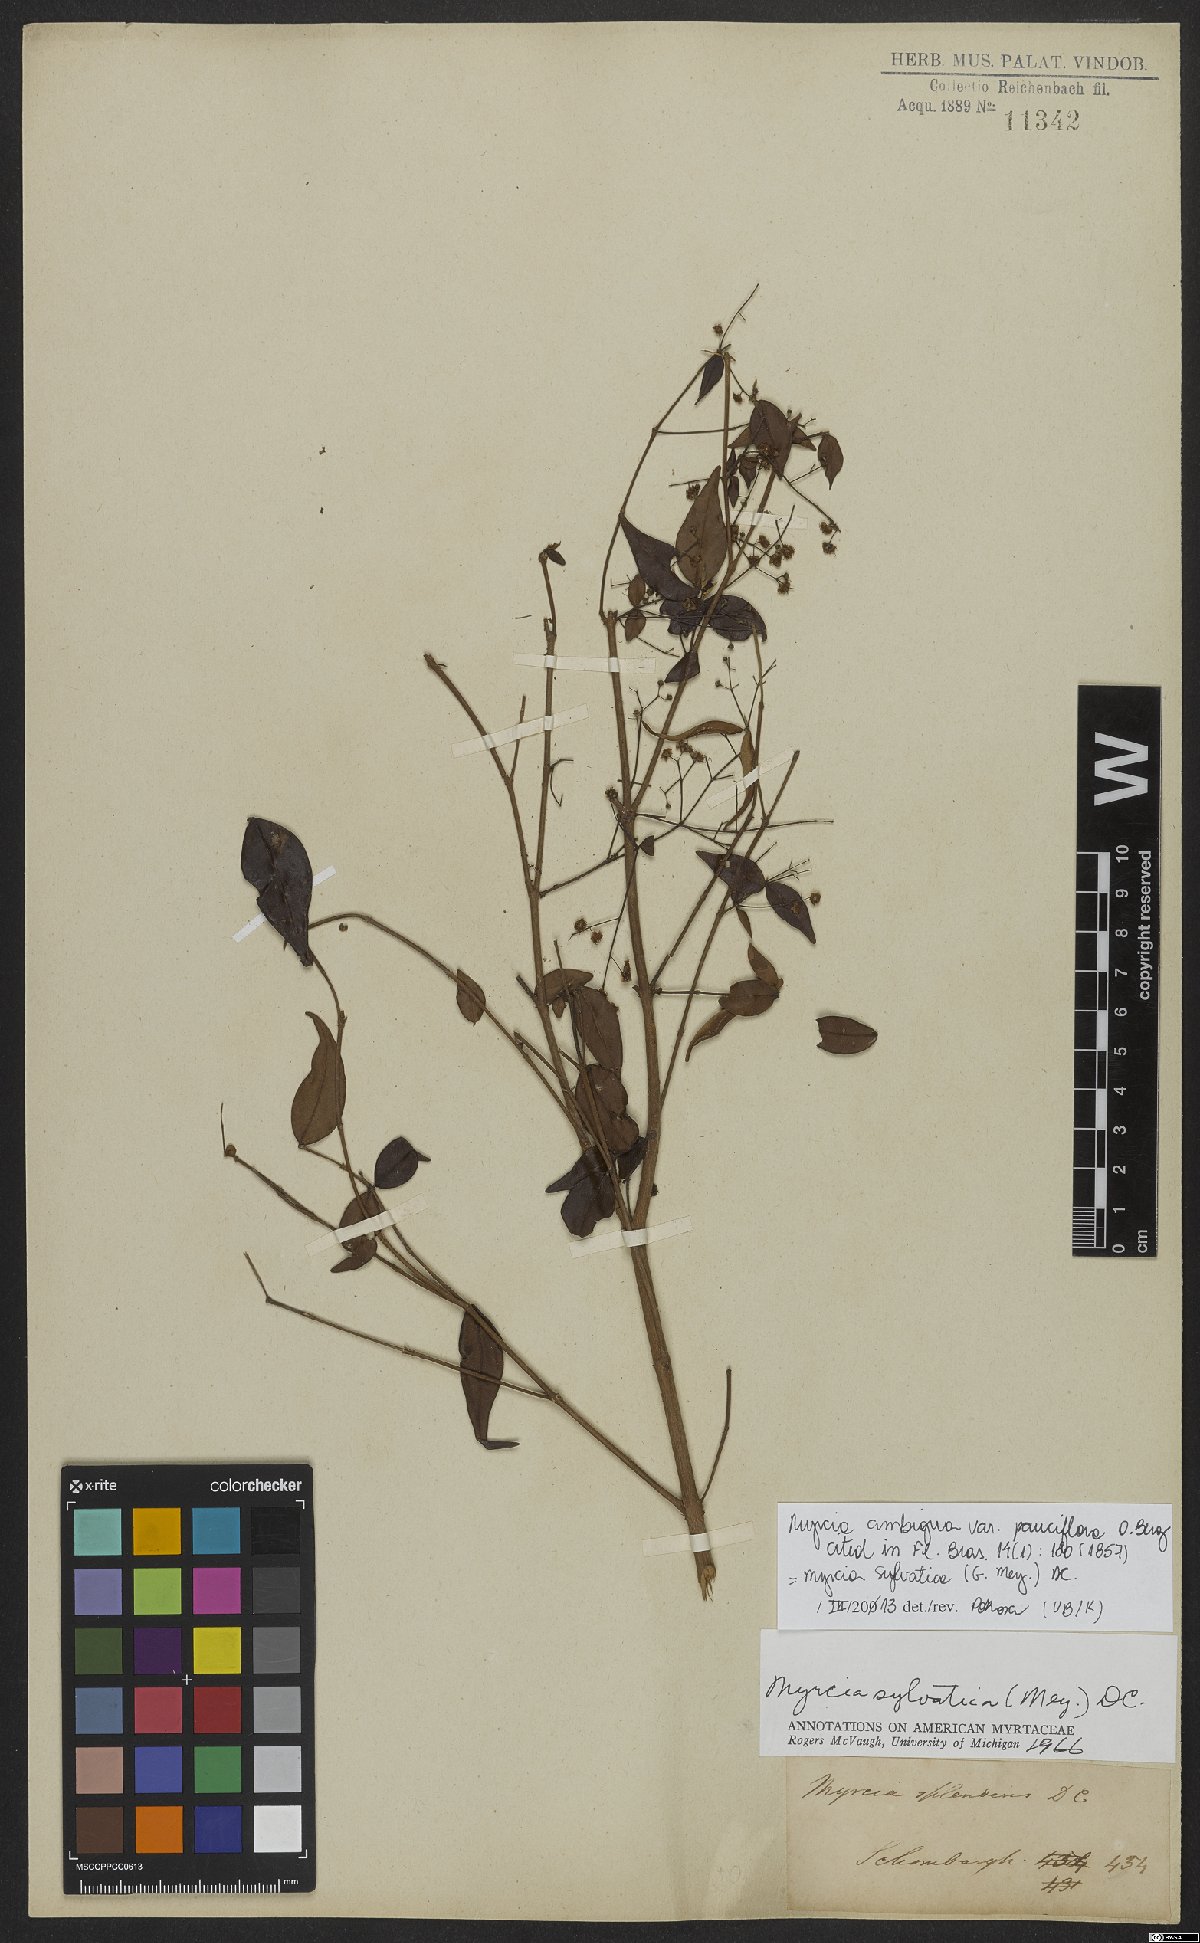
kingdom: Plantae
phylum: Tracheophyta
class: Magnoliopsida
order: Myrtales
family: Myrtaceae
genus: Myrcia
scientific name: Myrcia sylvatica
